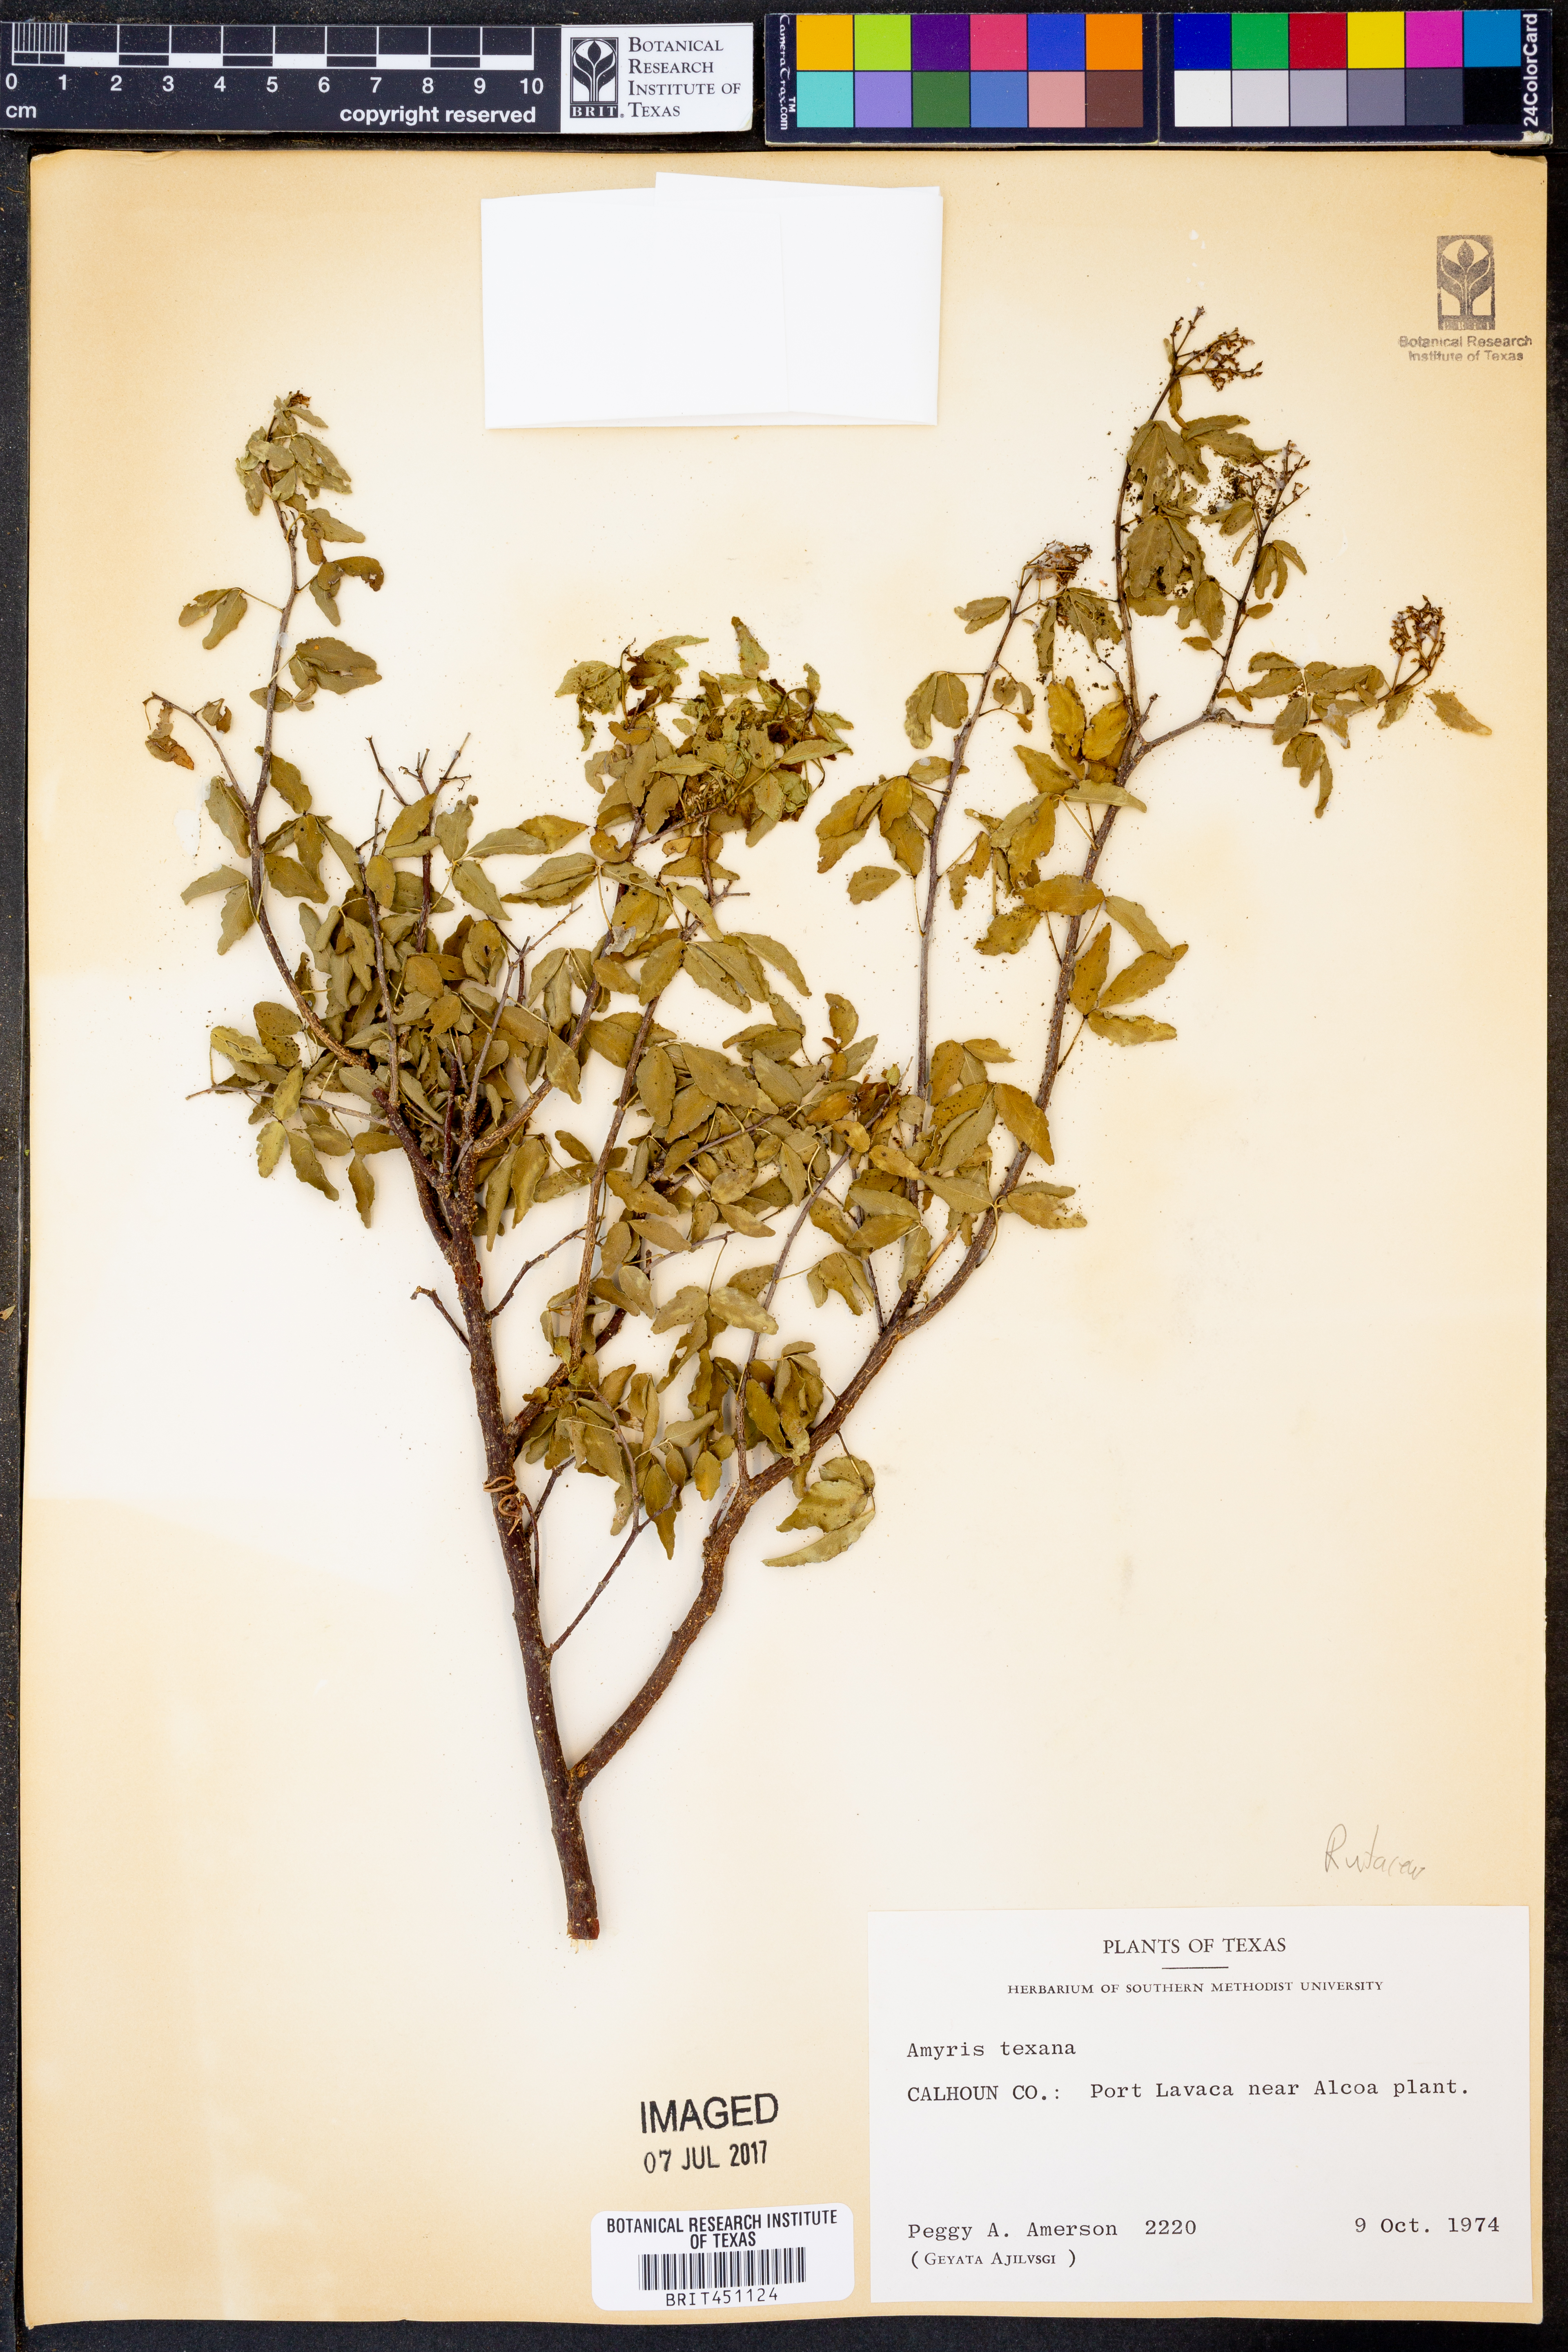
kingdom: Plantae
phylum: Tracheophyta
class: Magnoliopsida
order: Sapindales
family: Rutaceae
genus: Amyris
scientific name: Amyris texana
